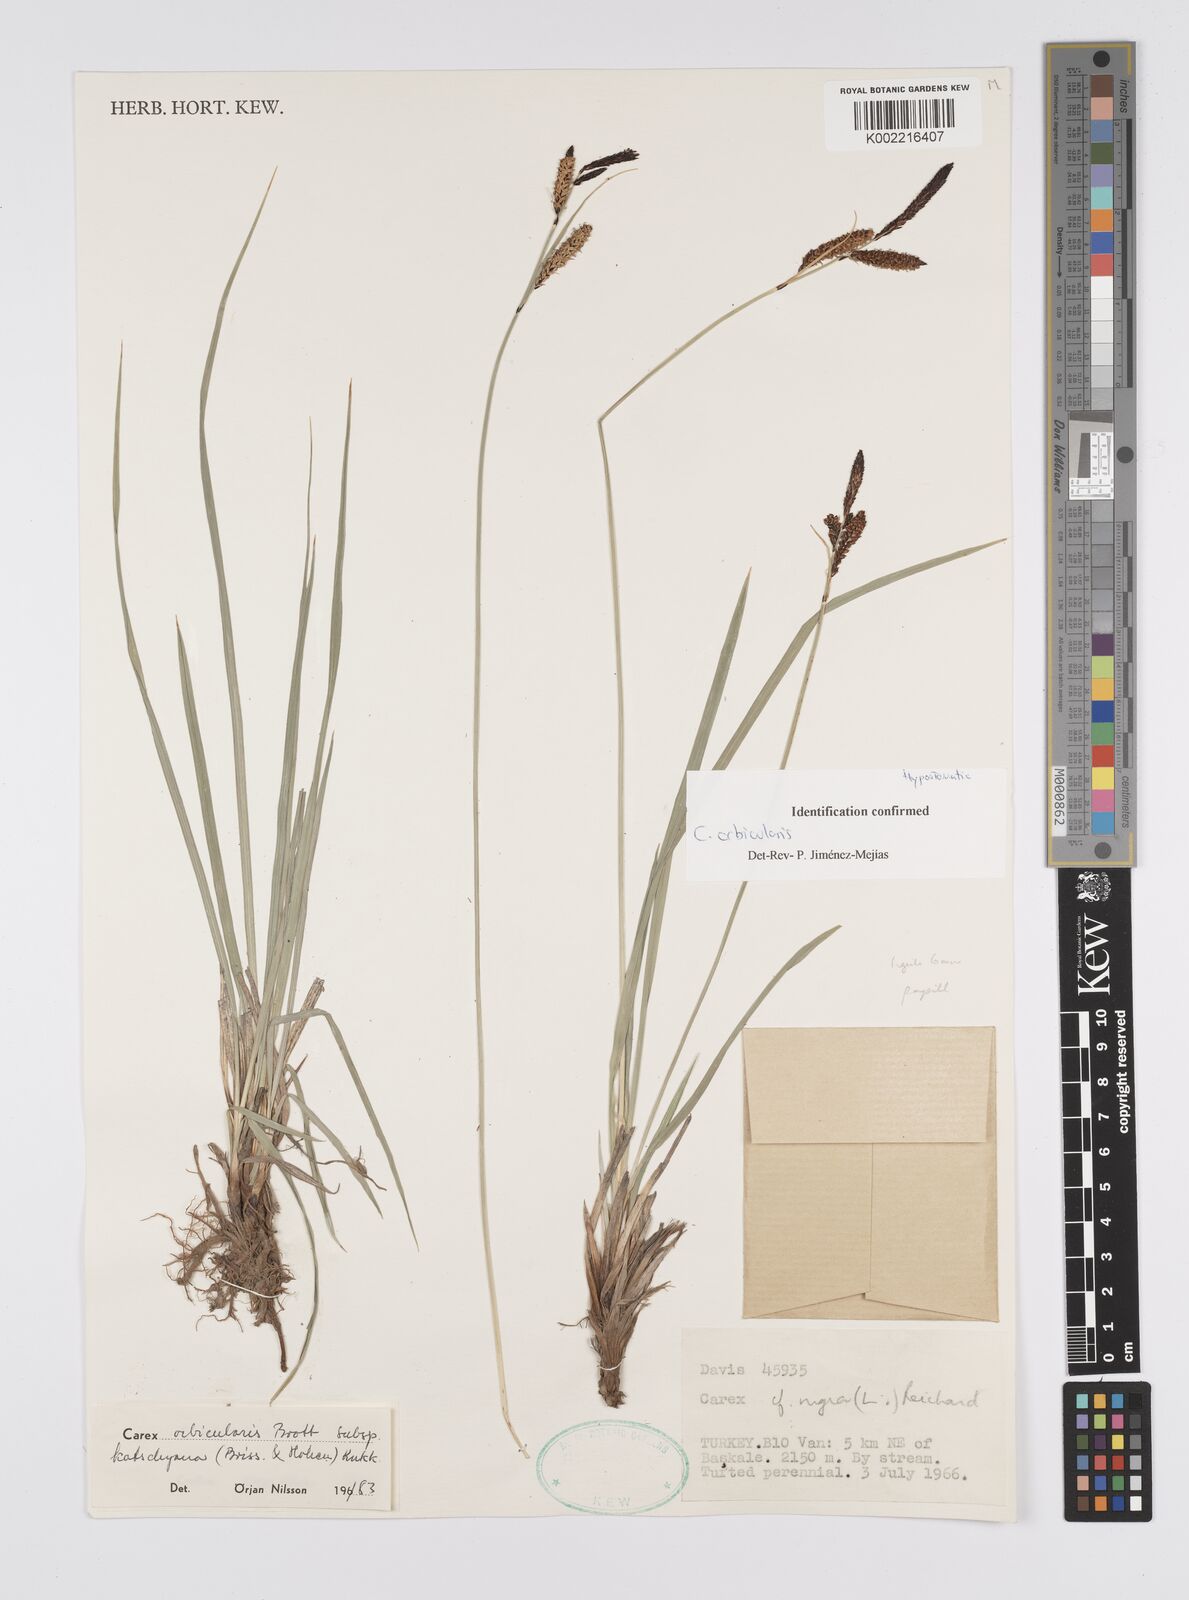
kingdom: Plantae
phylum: Tracheophyta
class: Liliopsida
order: Poales
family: Cyperaceae
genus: Carex
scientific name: Carex orbicularis
